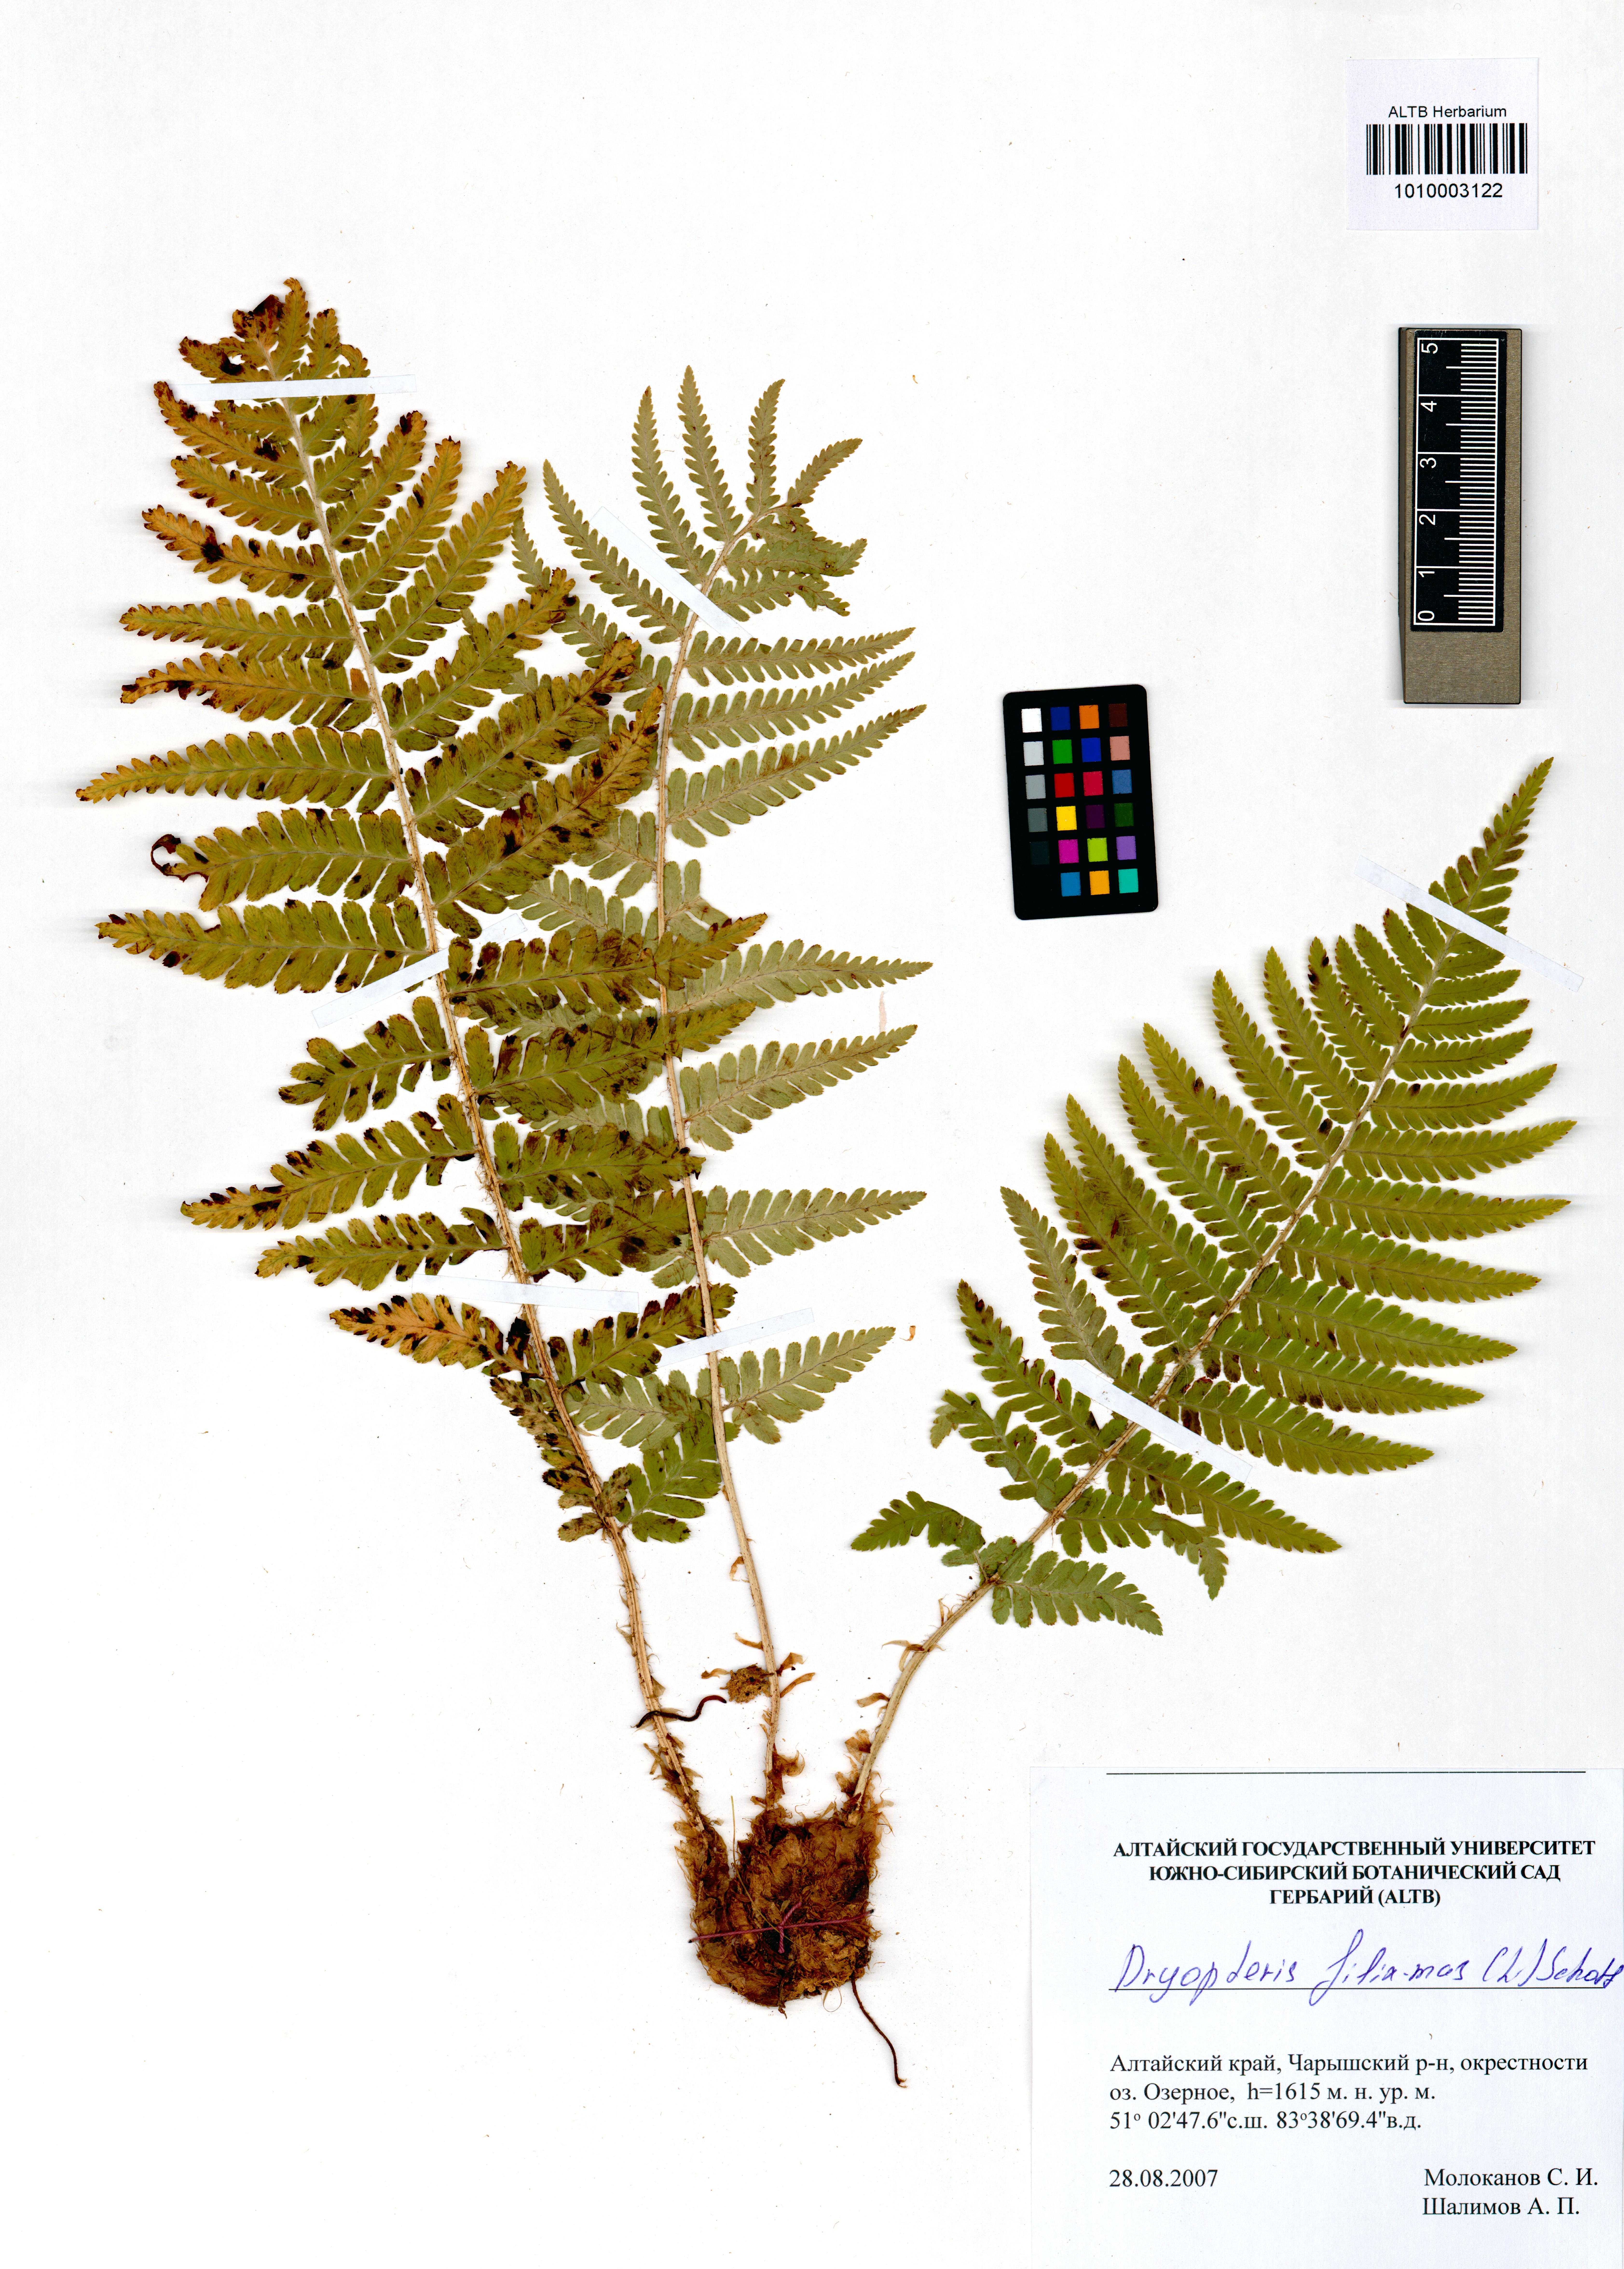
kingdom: Plantae
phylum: Tracheophyta
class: Polypodiopsida
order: Polypodiales
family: Dryopteridaceae
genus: Dryopteris
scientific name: Dryopteris filix-mas
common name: Male fern
